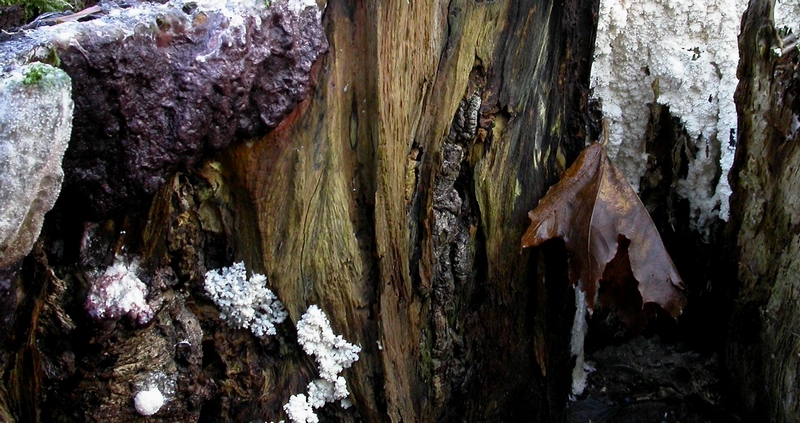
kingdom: Protozoa
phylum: Mycetozoa
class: Myxomycetes
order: Stemonitidales
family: Stemonitidaceae
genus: Brefeldia
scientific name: Brefeldia maxima
